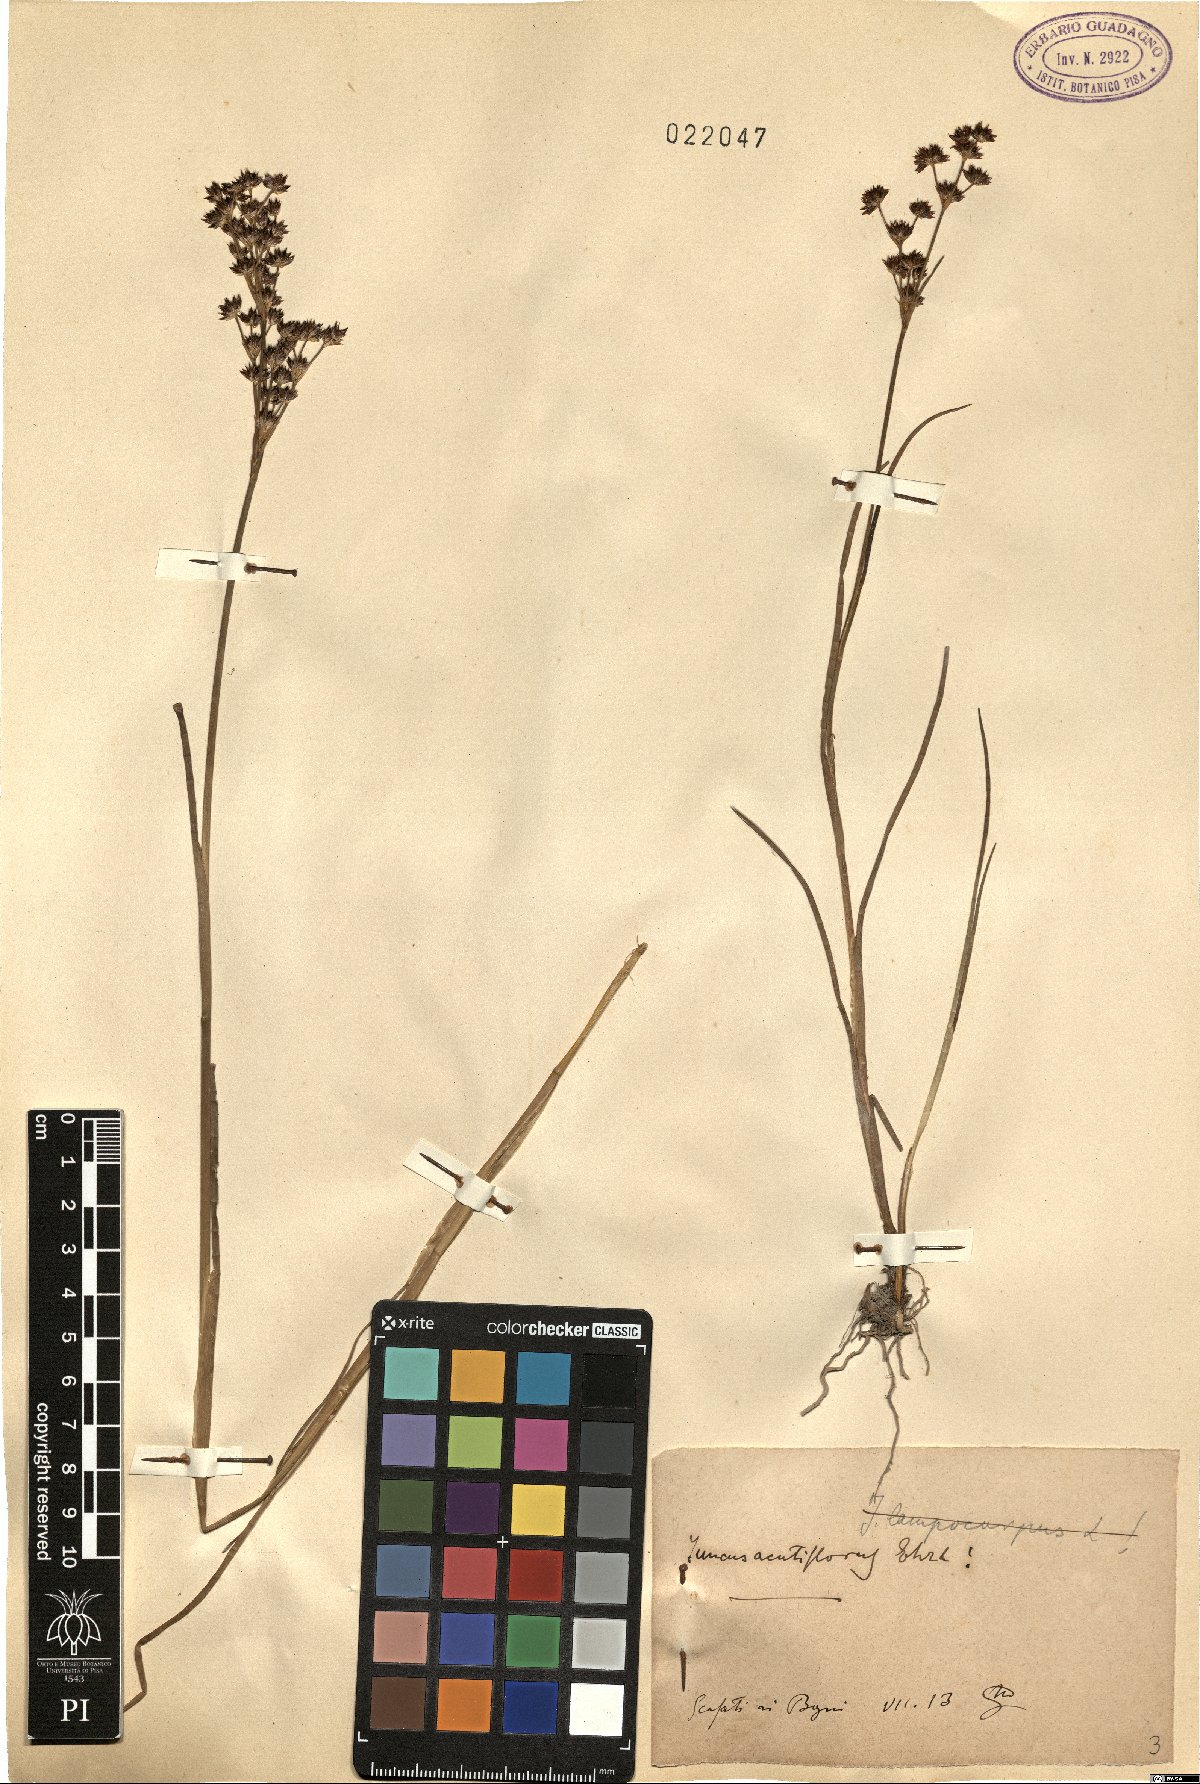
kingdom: Plantae
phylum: Tracheophyta
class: Liliopsida
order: Poales
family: Juncaceae
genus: Juncus
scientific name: Juncus acutiflorus
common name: Sharp-flowered rush
